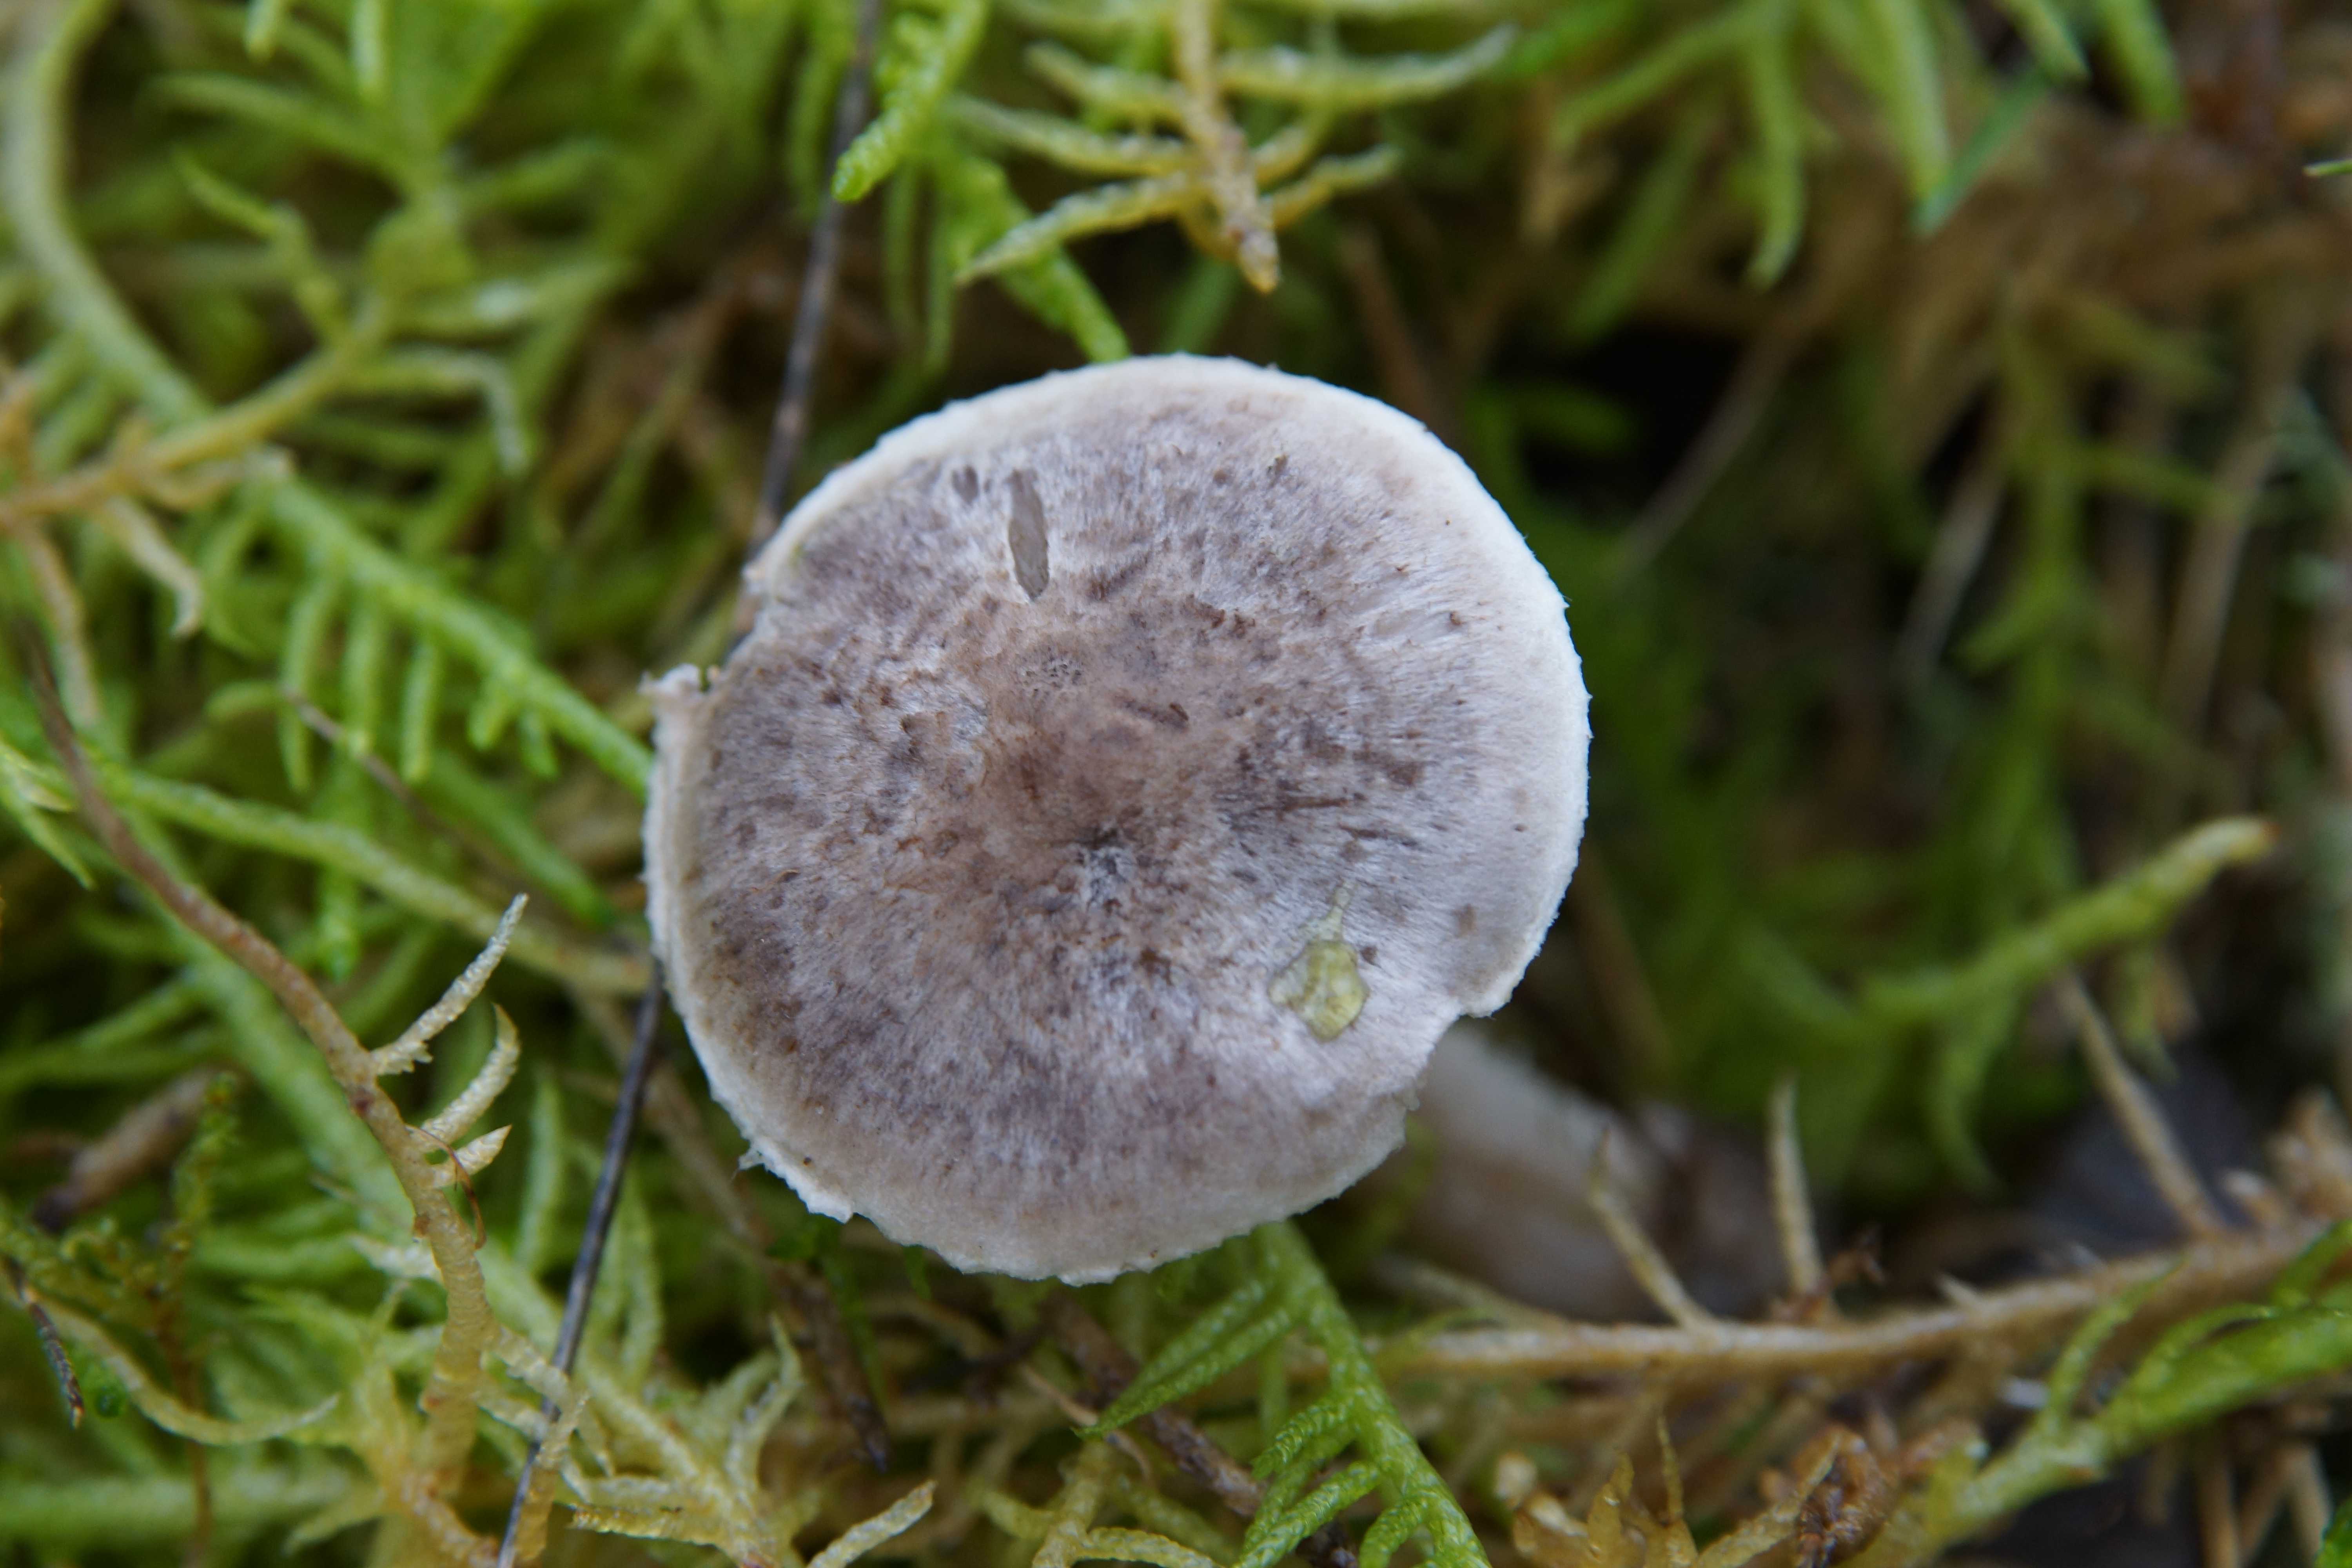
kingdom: Fungi
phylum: Basidiomycota
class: Agaricomycetes
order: Agaricales
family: Tricholomataceae
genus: Tricholoma
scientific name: Tricholoma cingulatum
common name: ring-ridderhat
